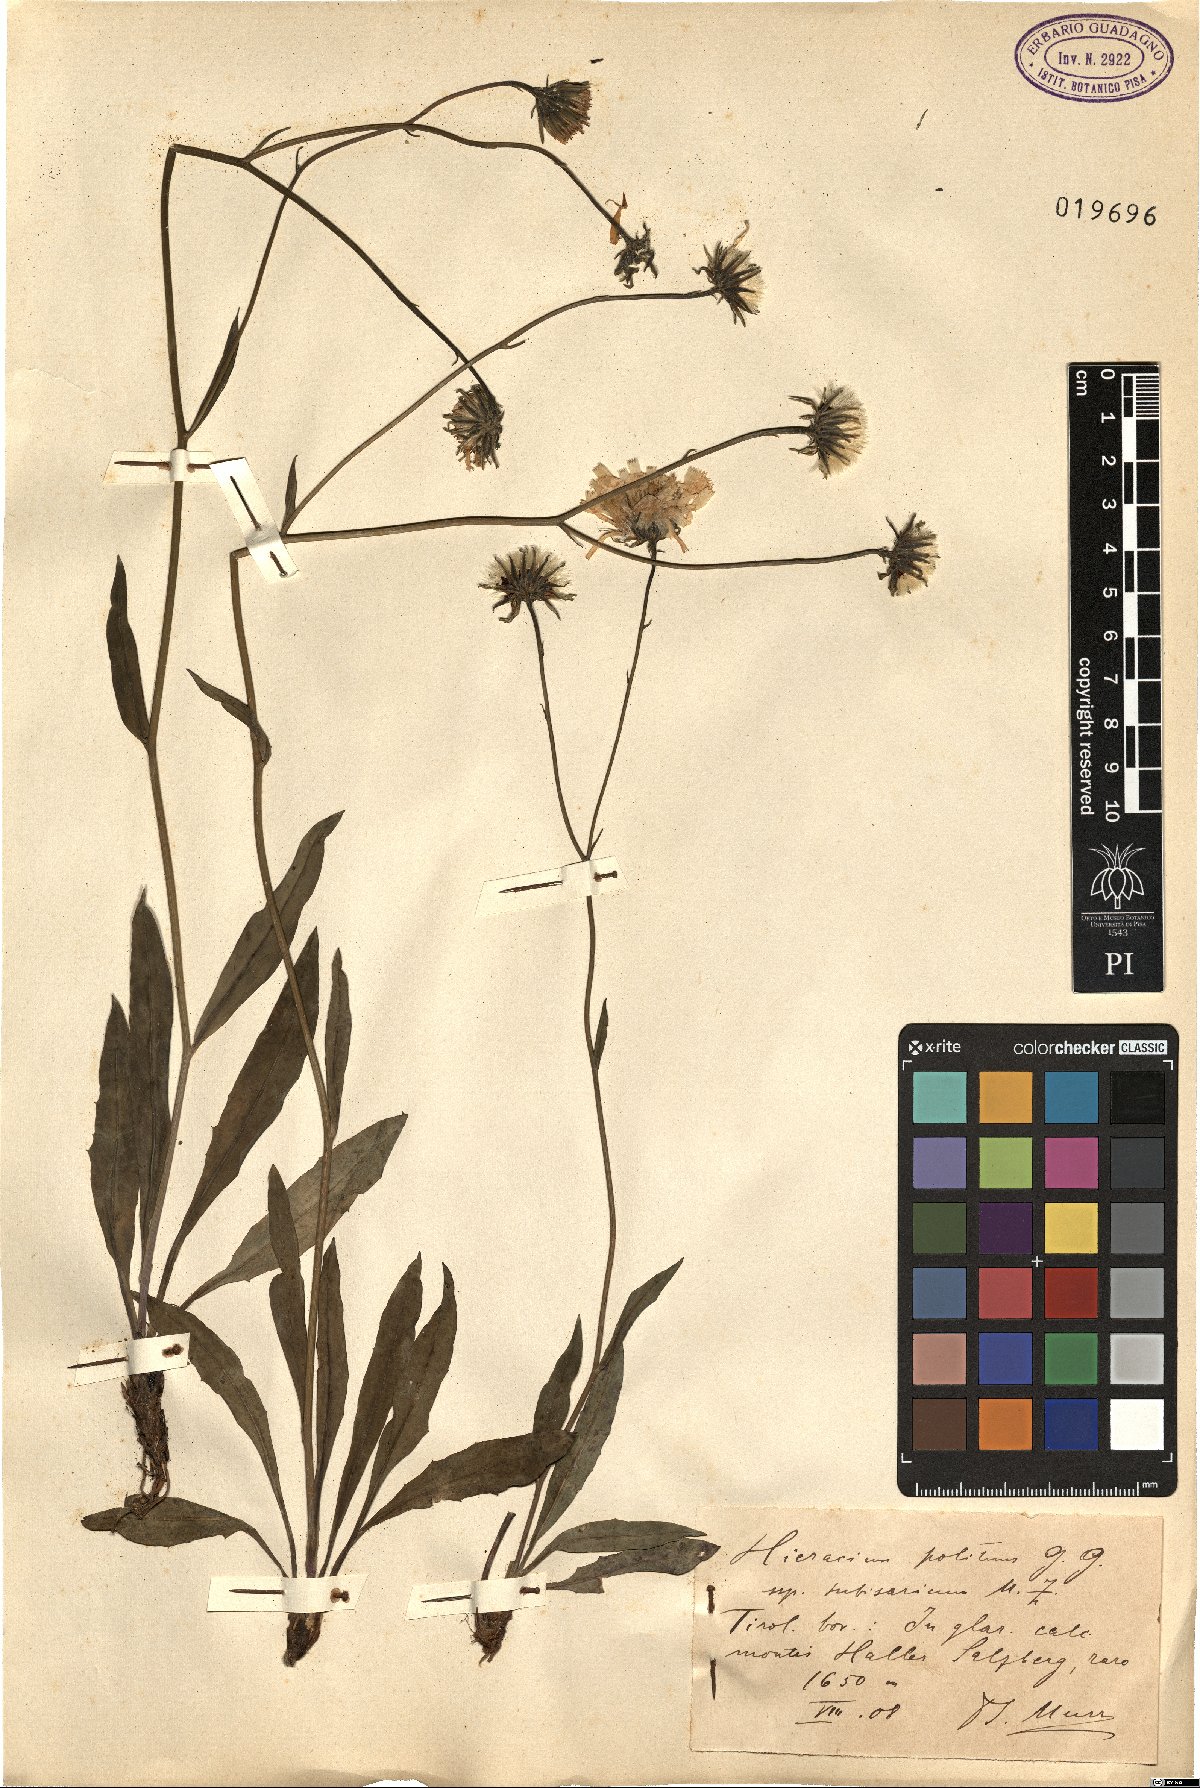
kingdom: Plantae
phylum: Tracheophyta
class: Magnoliopsida
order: Asterales
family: Asteraceae
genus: Hieracium
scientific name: Hieracium
